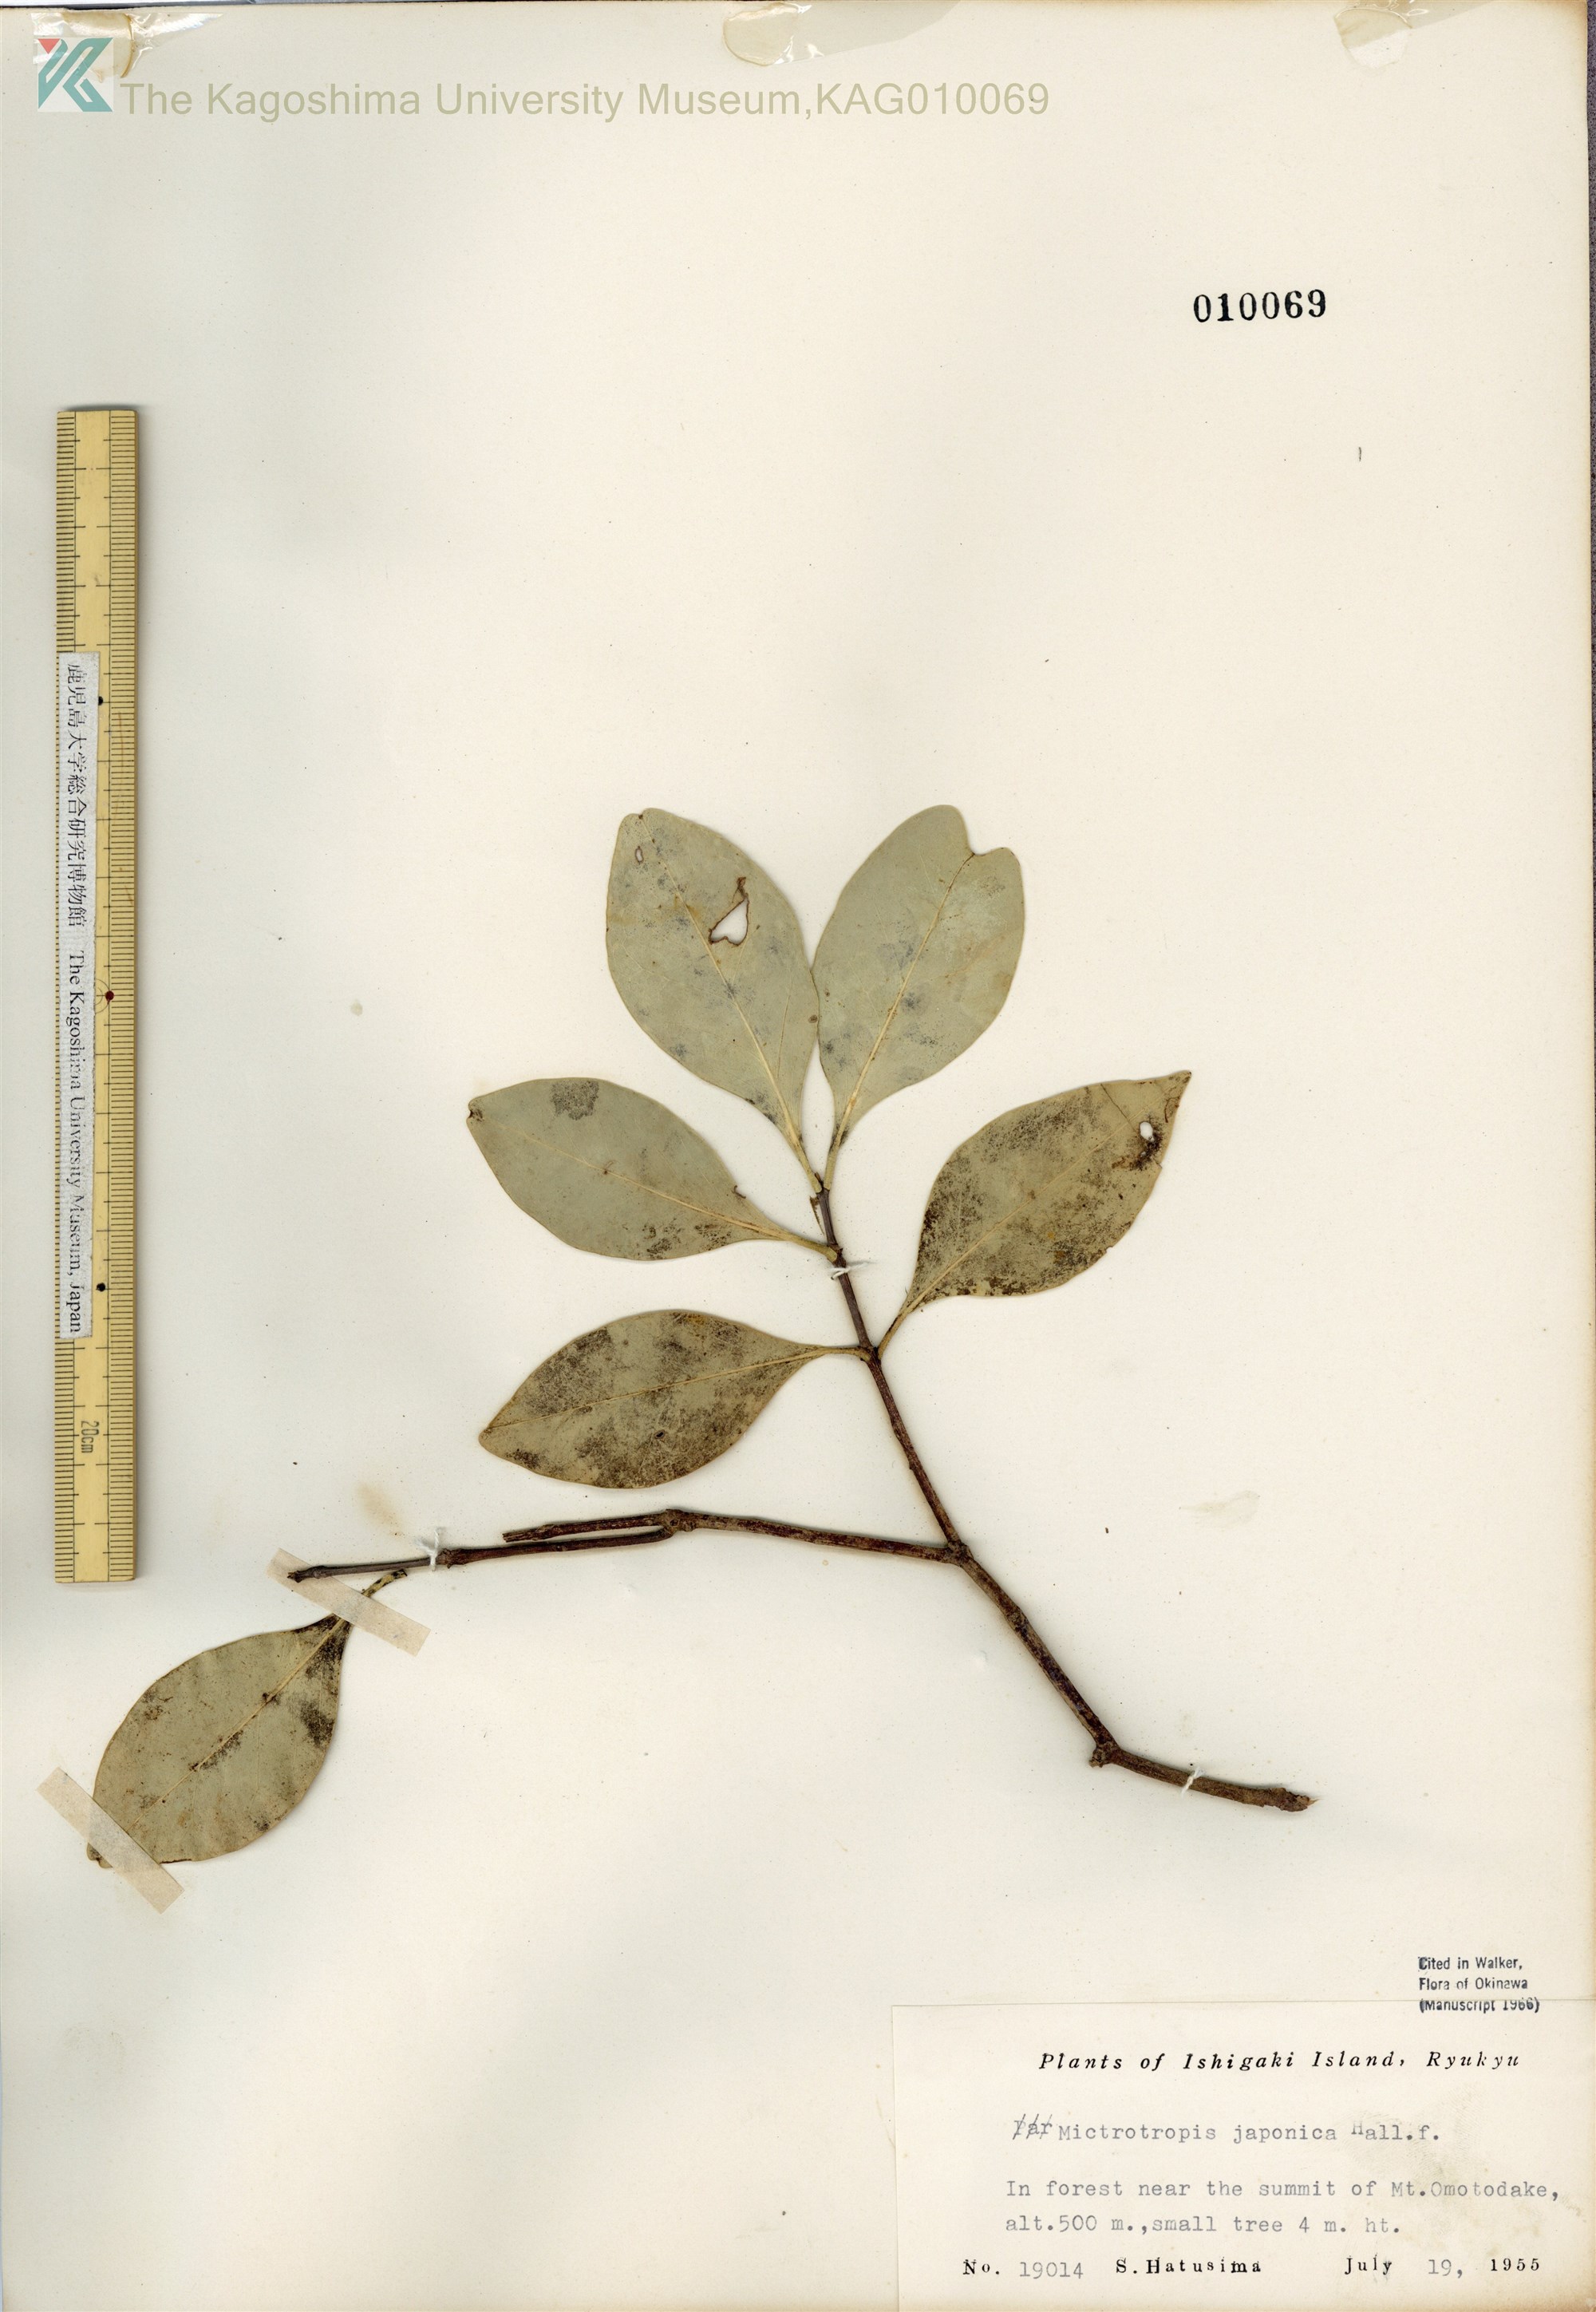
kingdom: Plantae
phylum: Tracheophyta
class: Magnoliopsida
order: Celastrales
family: Celastraceae
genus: Microtropis
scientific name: Microtropis japonica
